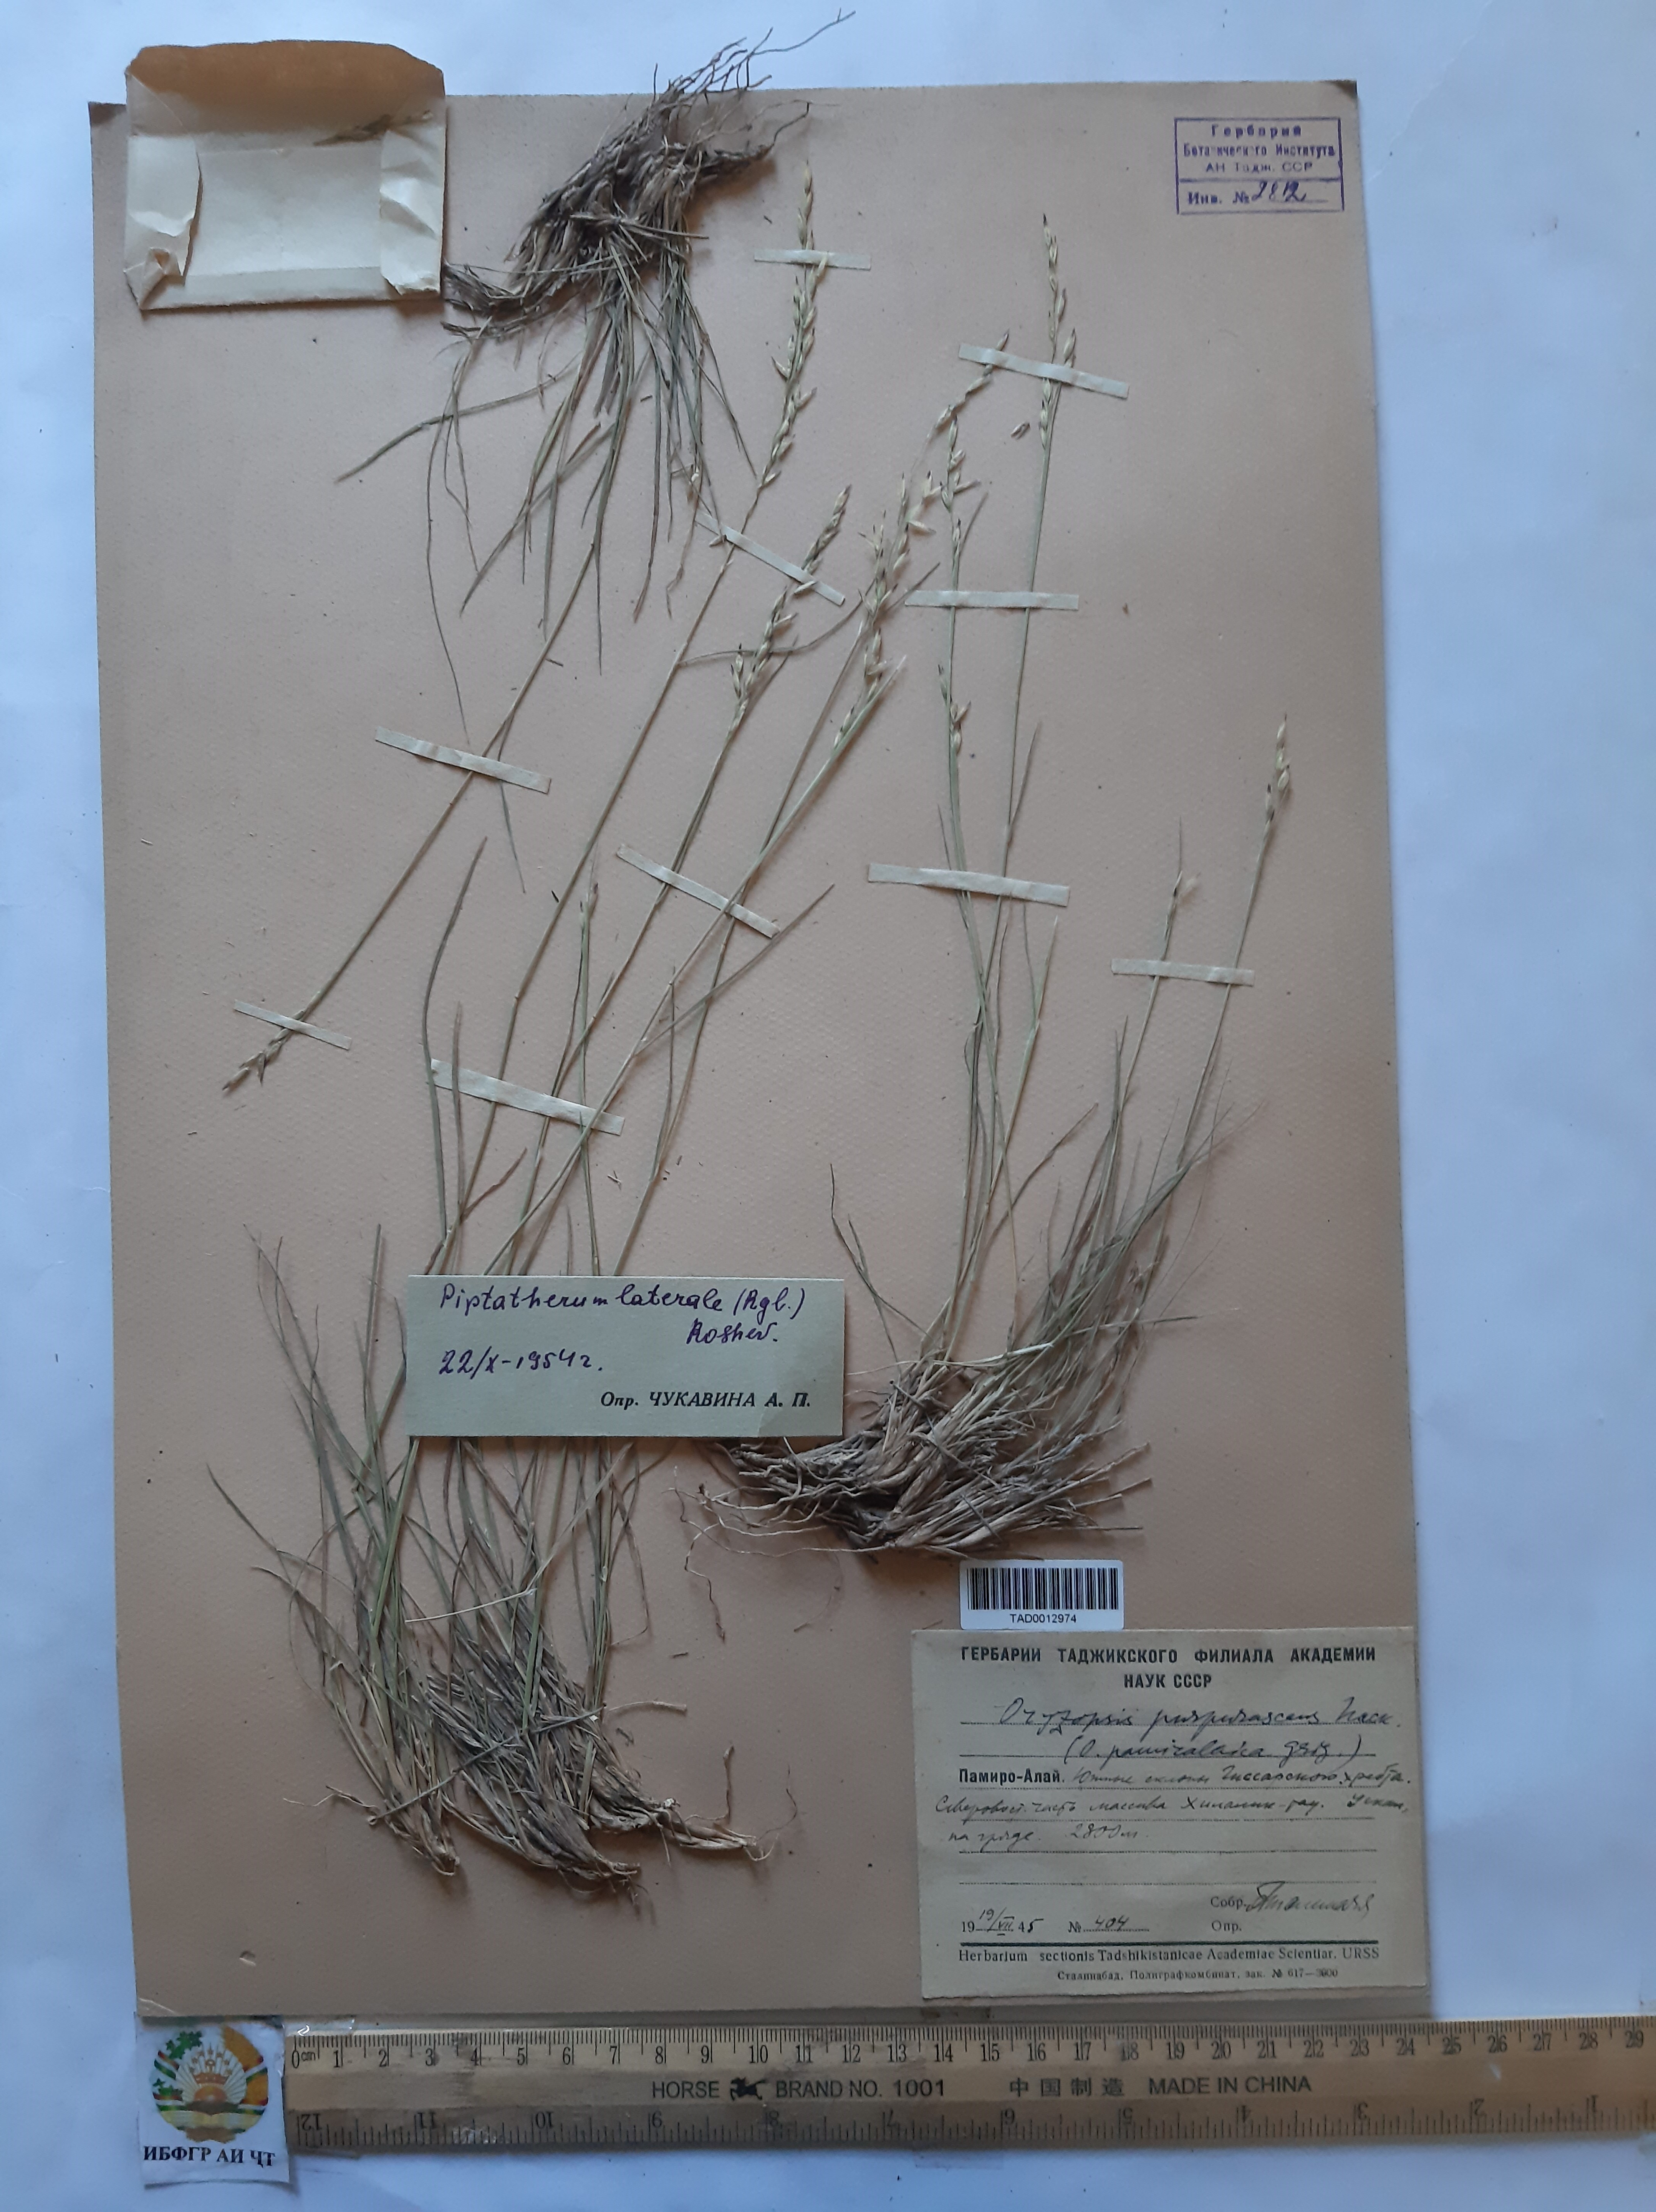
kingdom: Plantae
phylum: Tracheophyta
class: Liliopsida
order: Poales
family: Poaceae
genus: Piptatherum
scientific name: Piptatherum laterale
